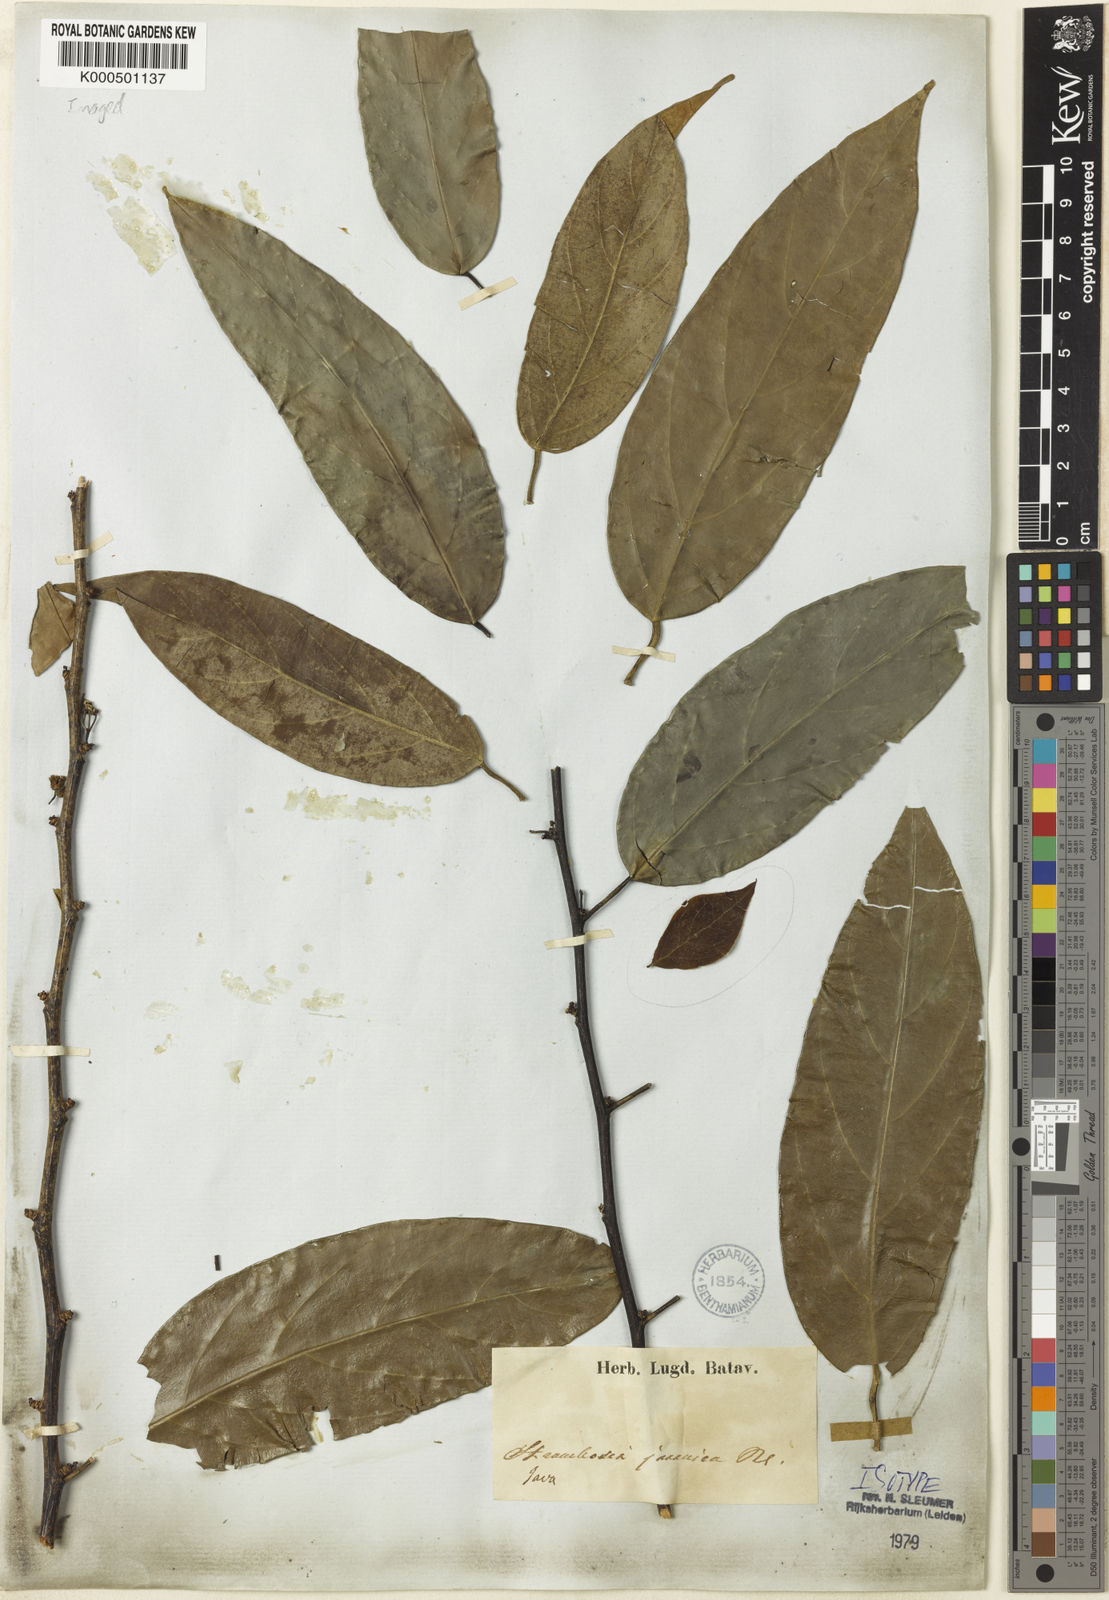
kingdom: Plantae
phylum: Tracheophyta
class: Magnoliopsida
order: Santalales
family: Strombosiaceae
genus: Strombosia
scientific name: Strombosia javanica
